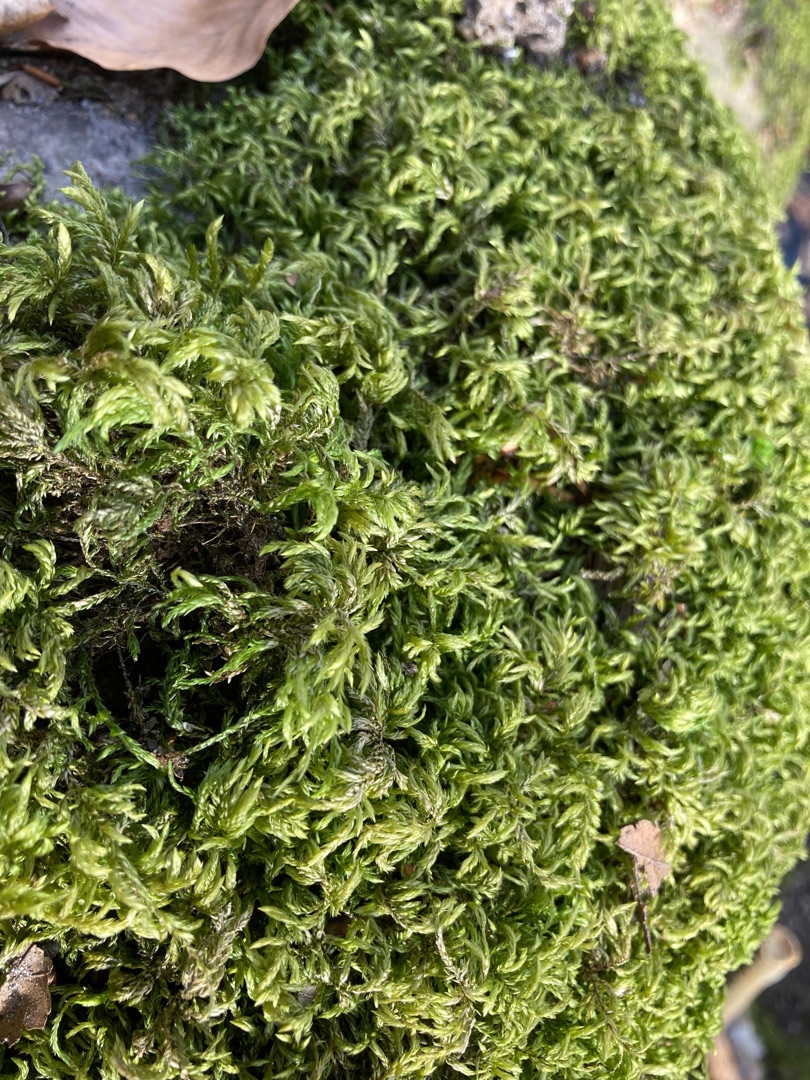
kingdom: Plantae
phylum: Bryophyta
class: Bryopsida
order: Hypnales
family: Lembophyllaceae
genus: Isothecium
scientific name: Isothecium alopecuroides
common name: Stor stammemos
